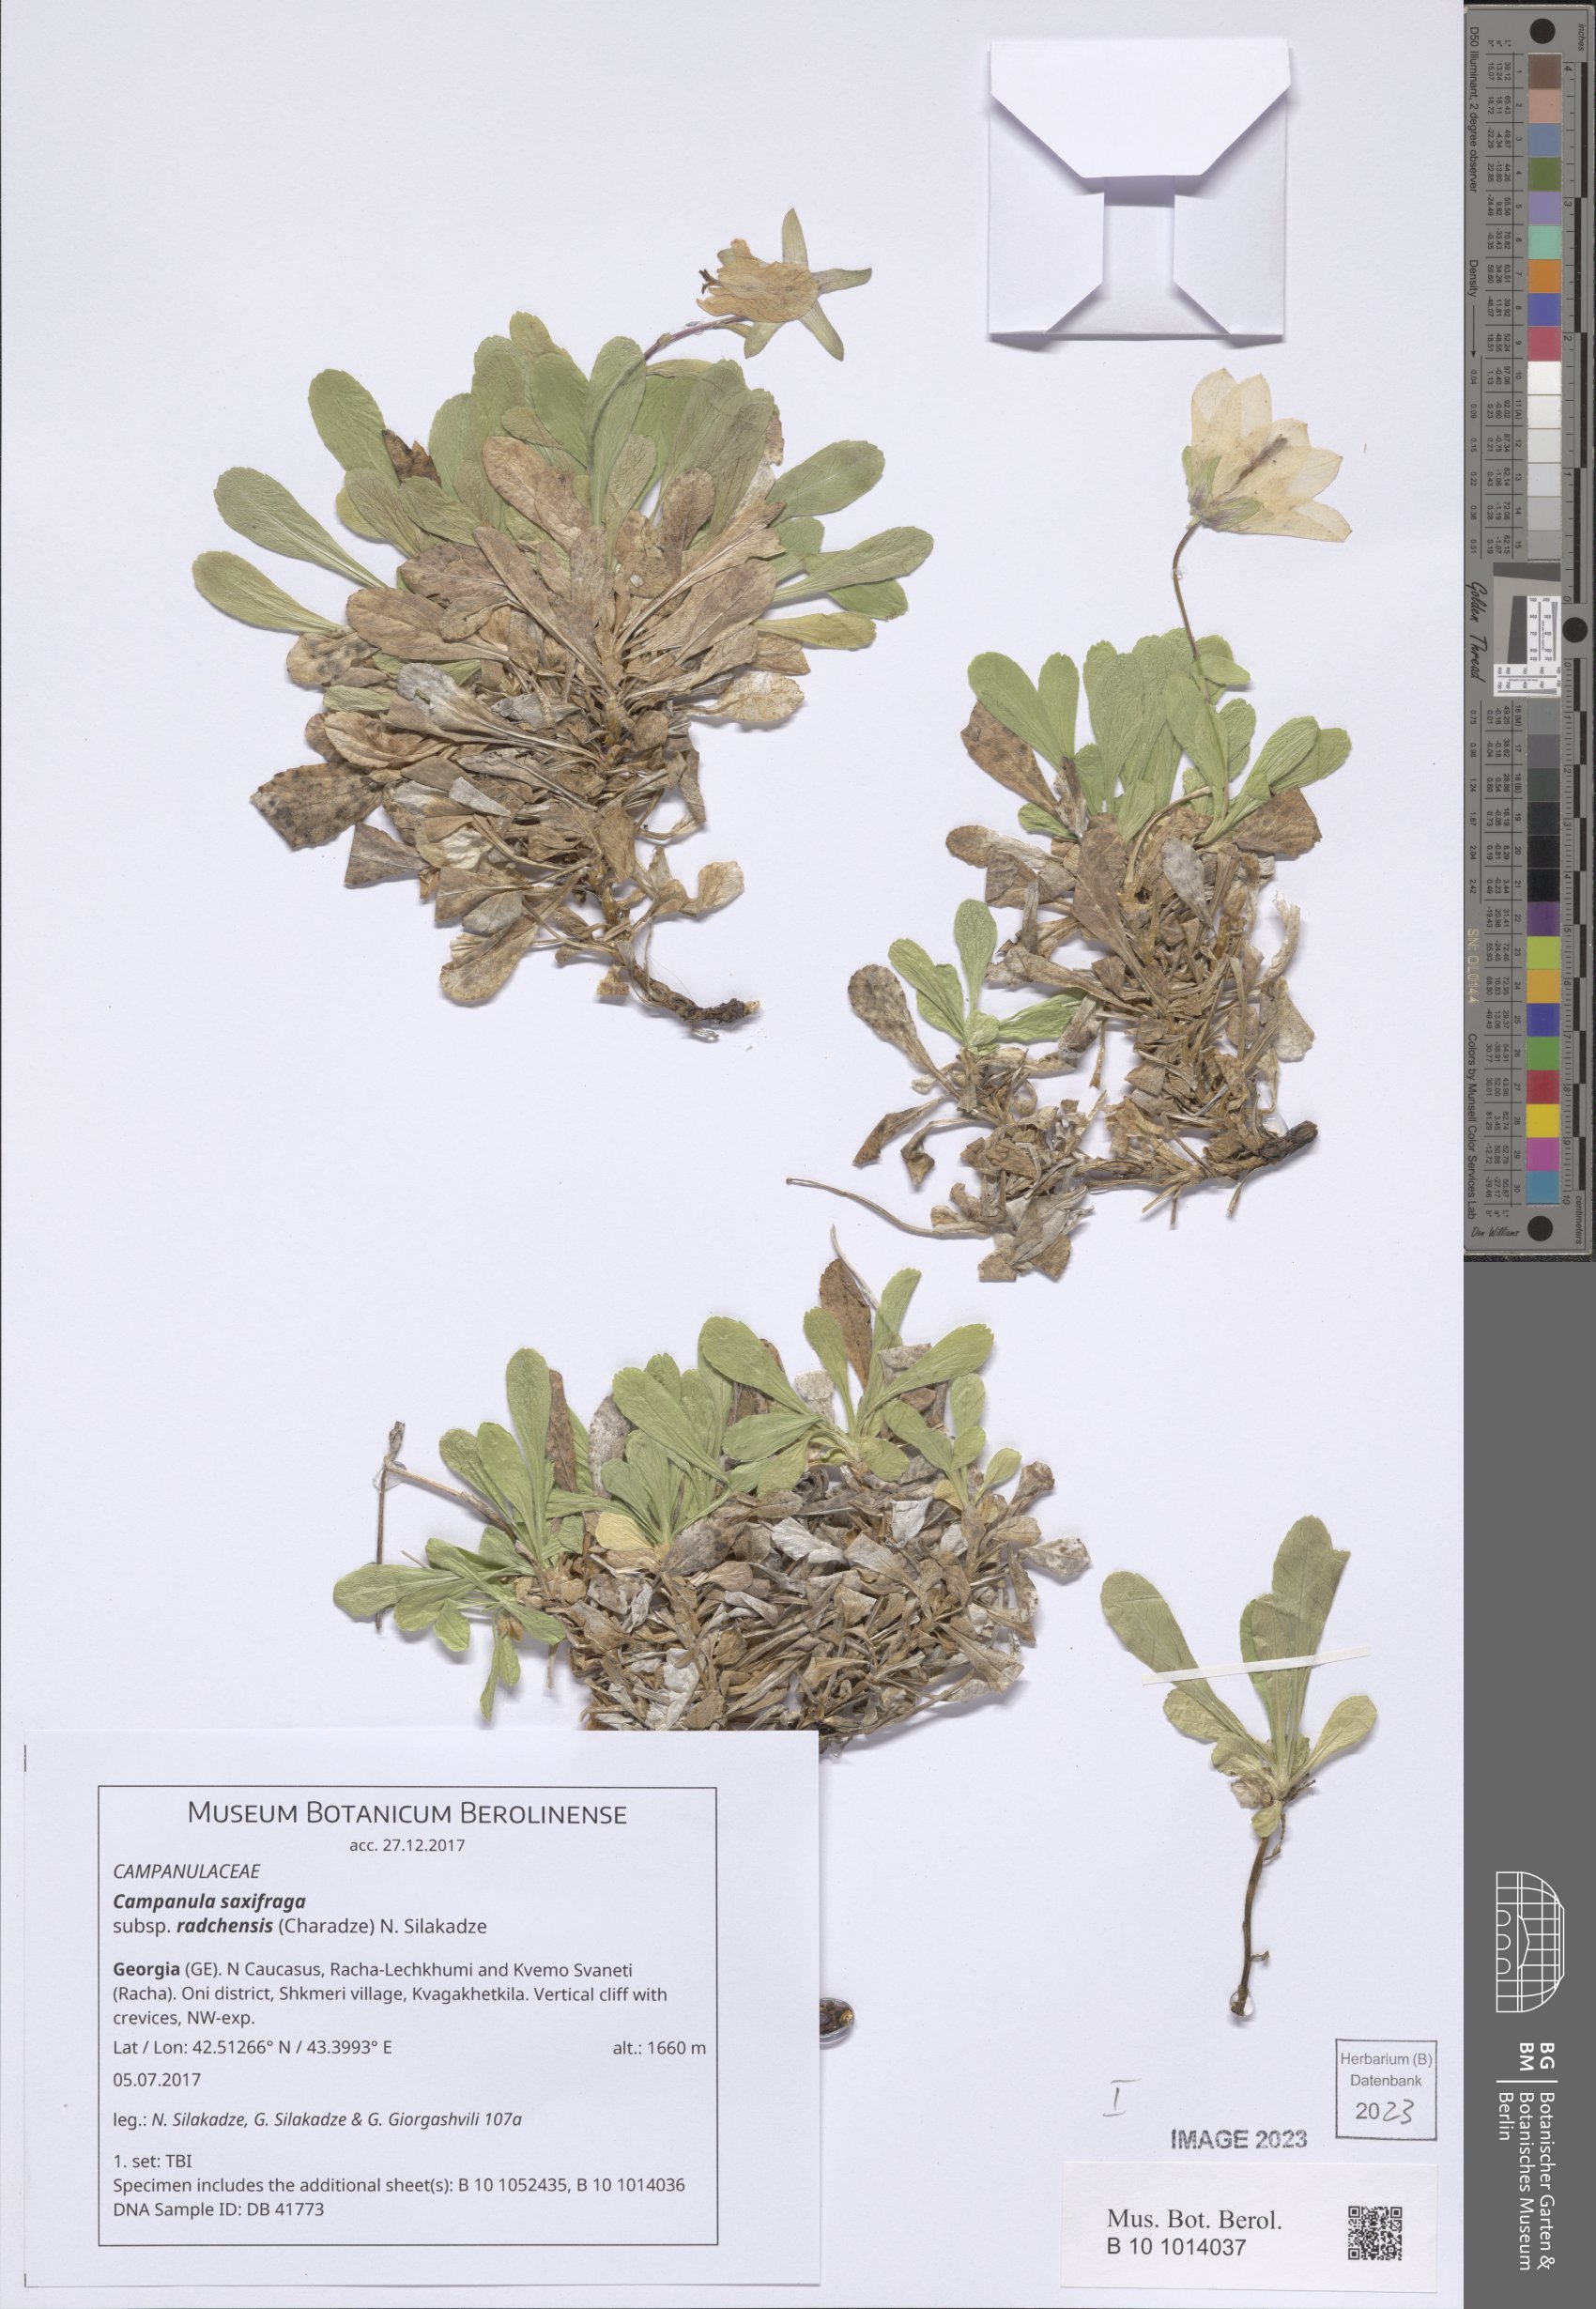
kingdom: Plantae
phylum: Tracheophyta
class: Magnoliopsida
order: Asterales
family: Campanulaceae
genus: Campanula
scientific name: Campanula saxifraga
